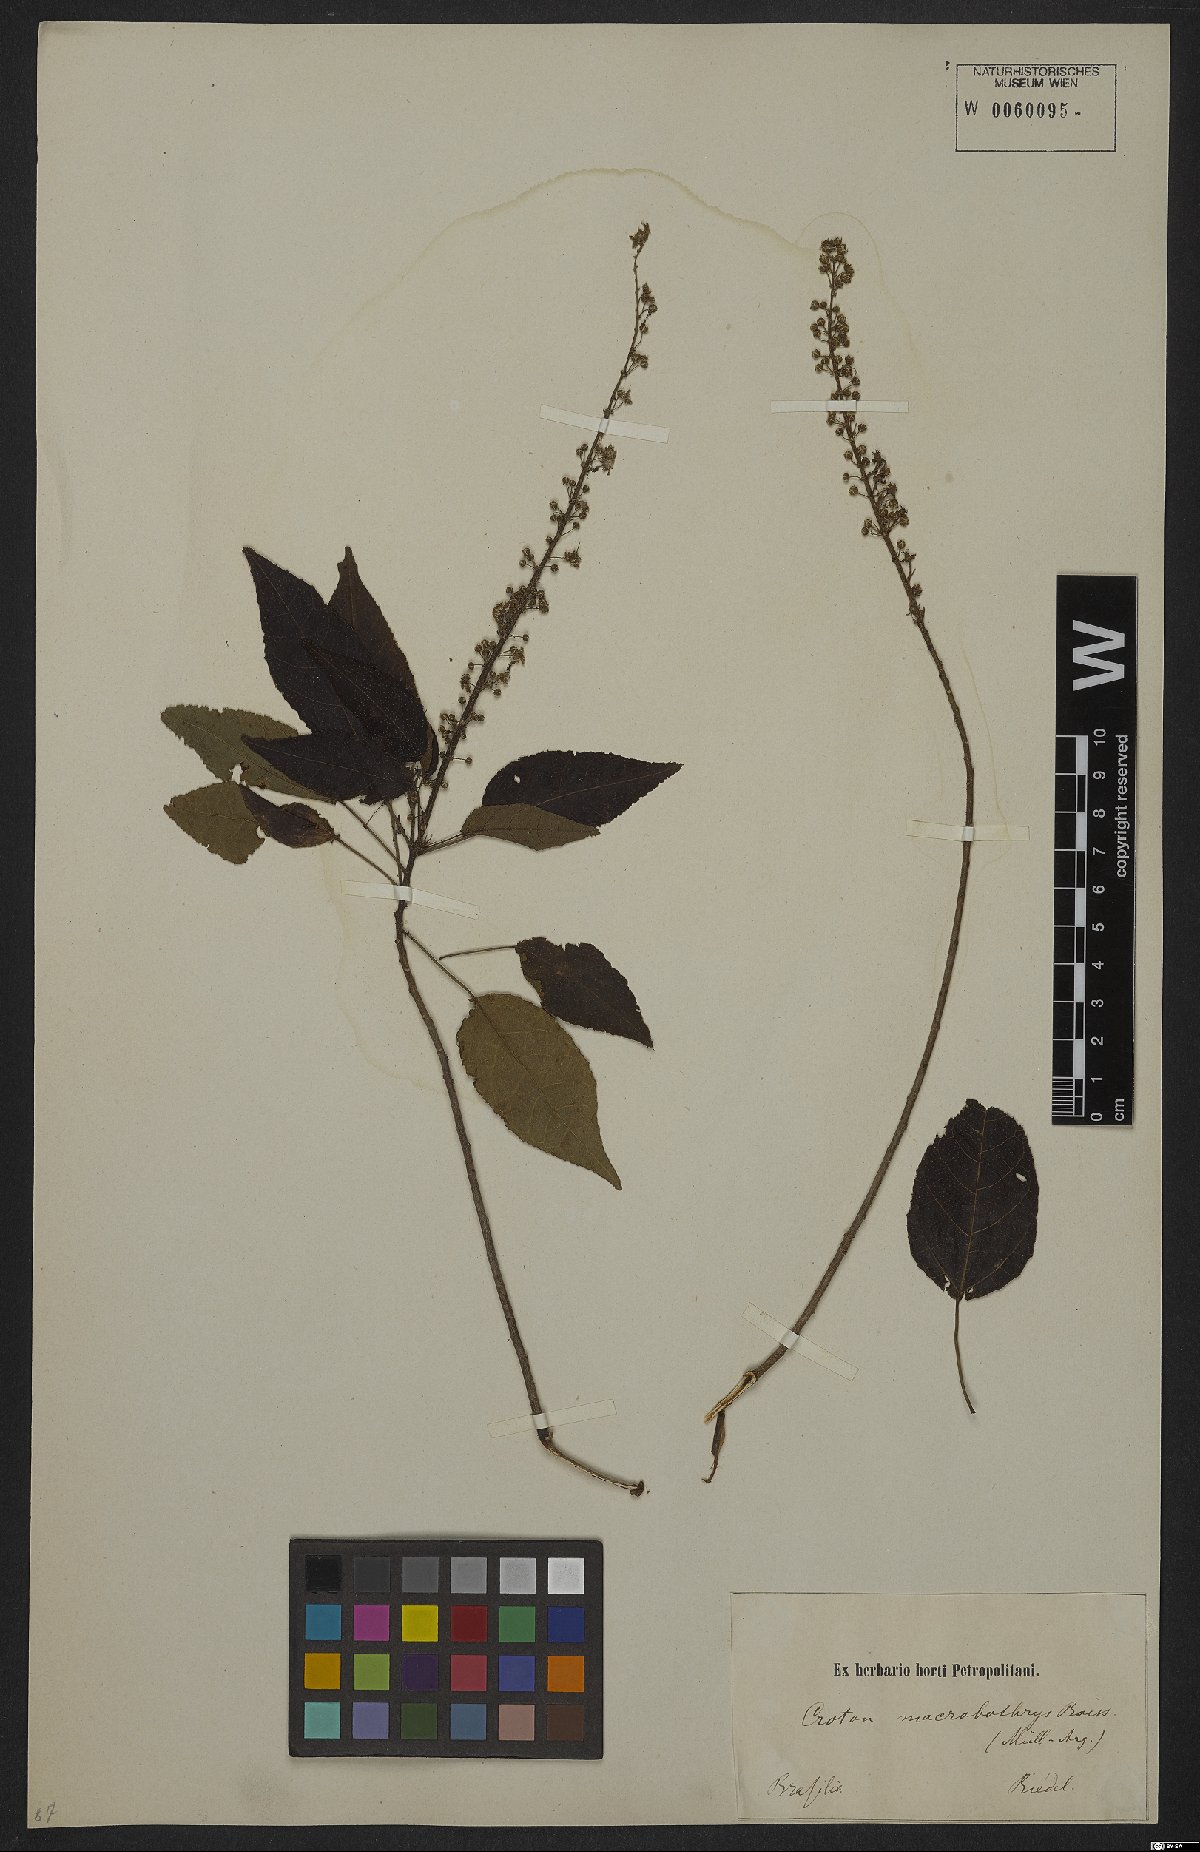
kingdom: Plantae
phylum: Tracheophyta
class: Magnoliopsida
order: Malpighiales
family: Euphorbiaceae
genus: Croton
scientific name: Croton macrobothrys
